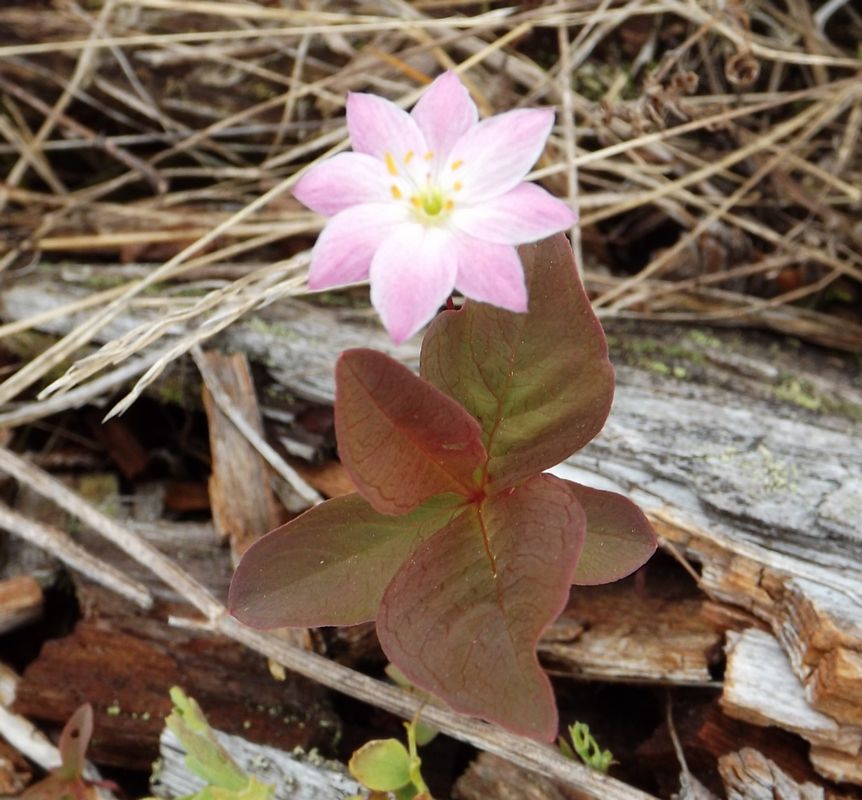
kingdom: Plantae
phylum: Tracheophyta
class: Magnoliopsida
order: Ericales
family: Primulaceae
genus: Lysimachia
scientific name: Lysimachia europaea
